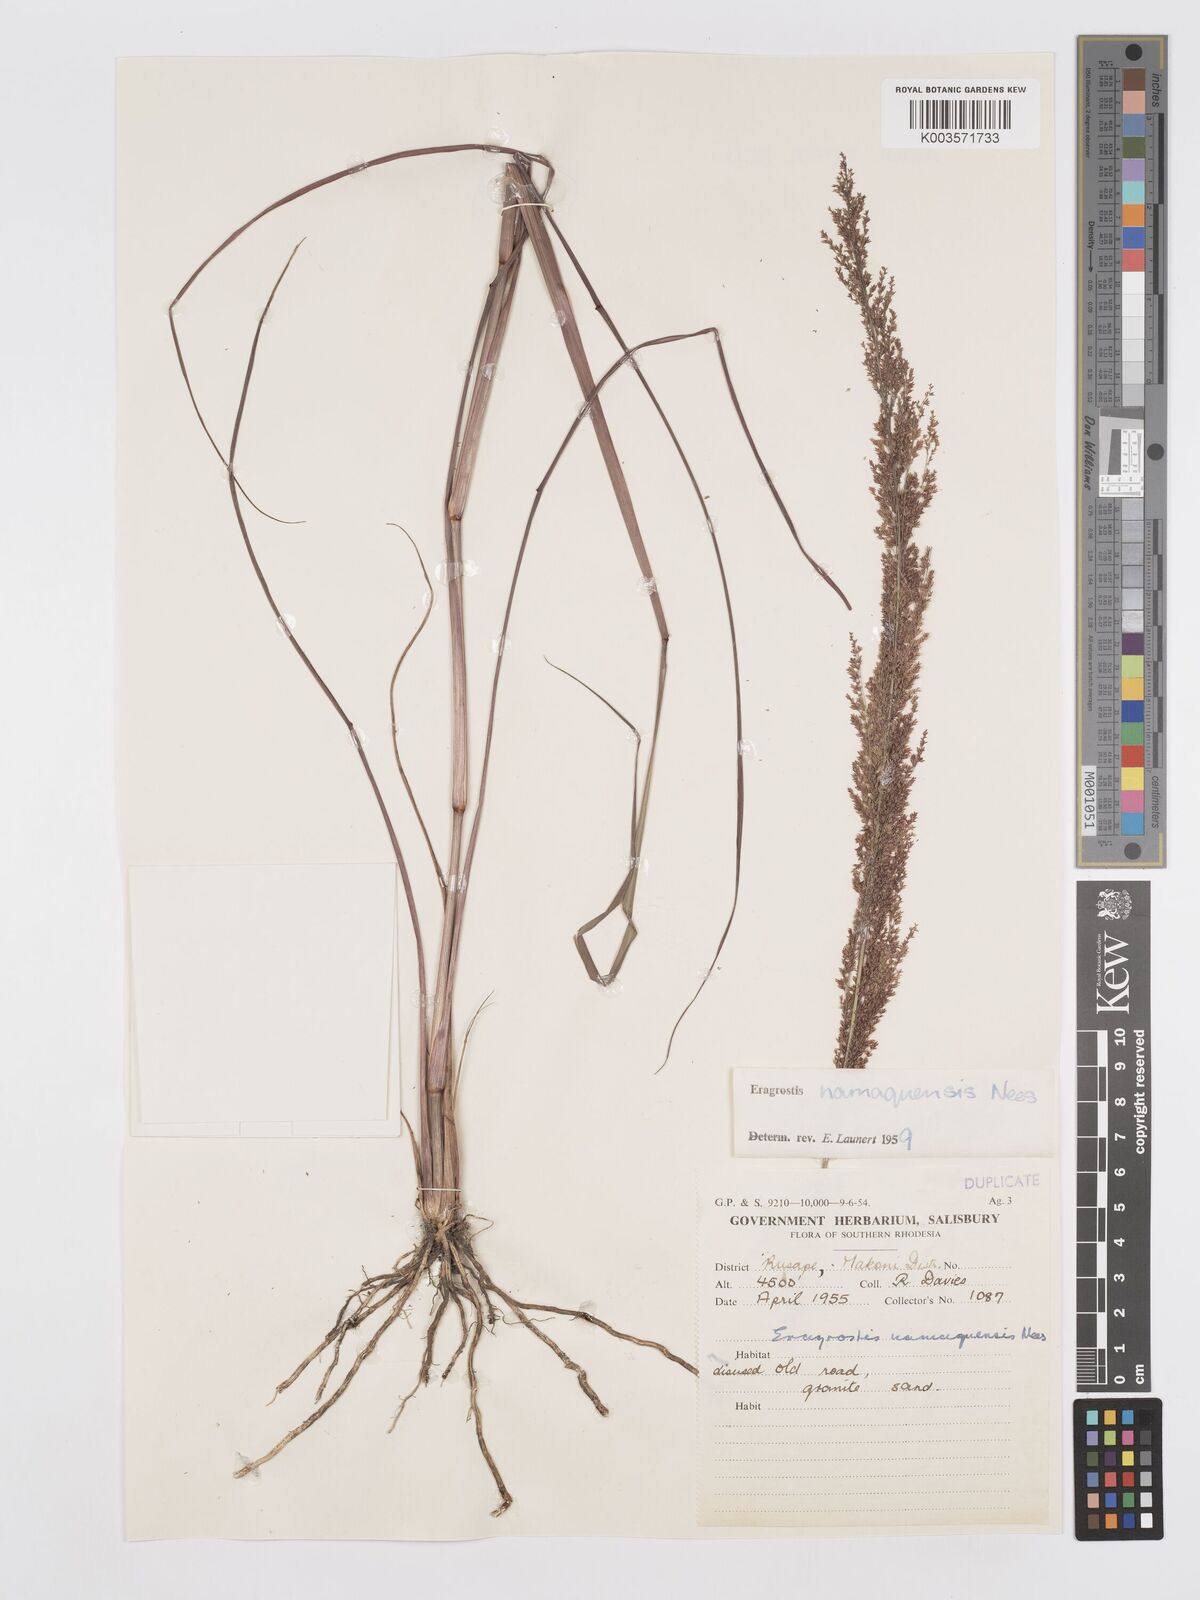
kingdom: Plantae
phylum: Tracheophyta
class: Liliopsida
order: Poales
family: Poaceae
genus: Eragrostis
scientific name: Eragrostis japonica
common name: Pond lovegrass
